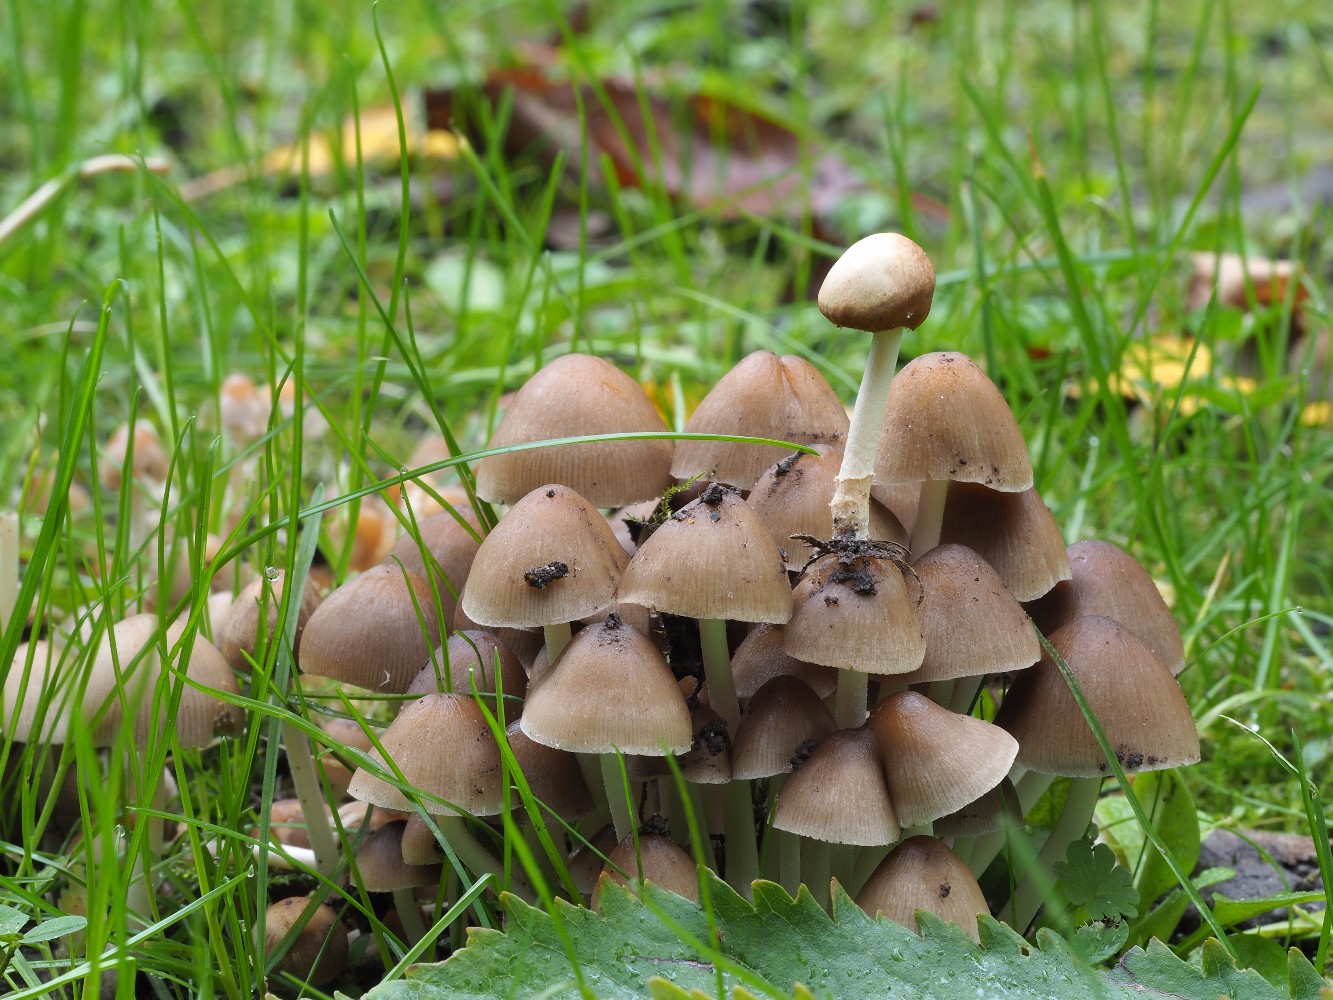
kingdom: Fungi
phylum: Basidiomycota
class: Agaricomycetes
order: Agaricales
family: Psathyrellaceae
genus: Britzelmayria
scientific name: Britzelmayria multipedata
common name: knippe-mørkhat
